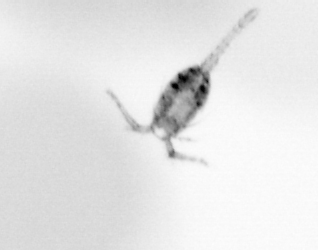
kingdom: Animalia
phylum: Arthropoda
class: Copepoda
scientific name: Copepoda
